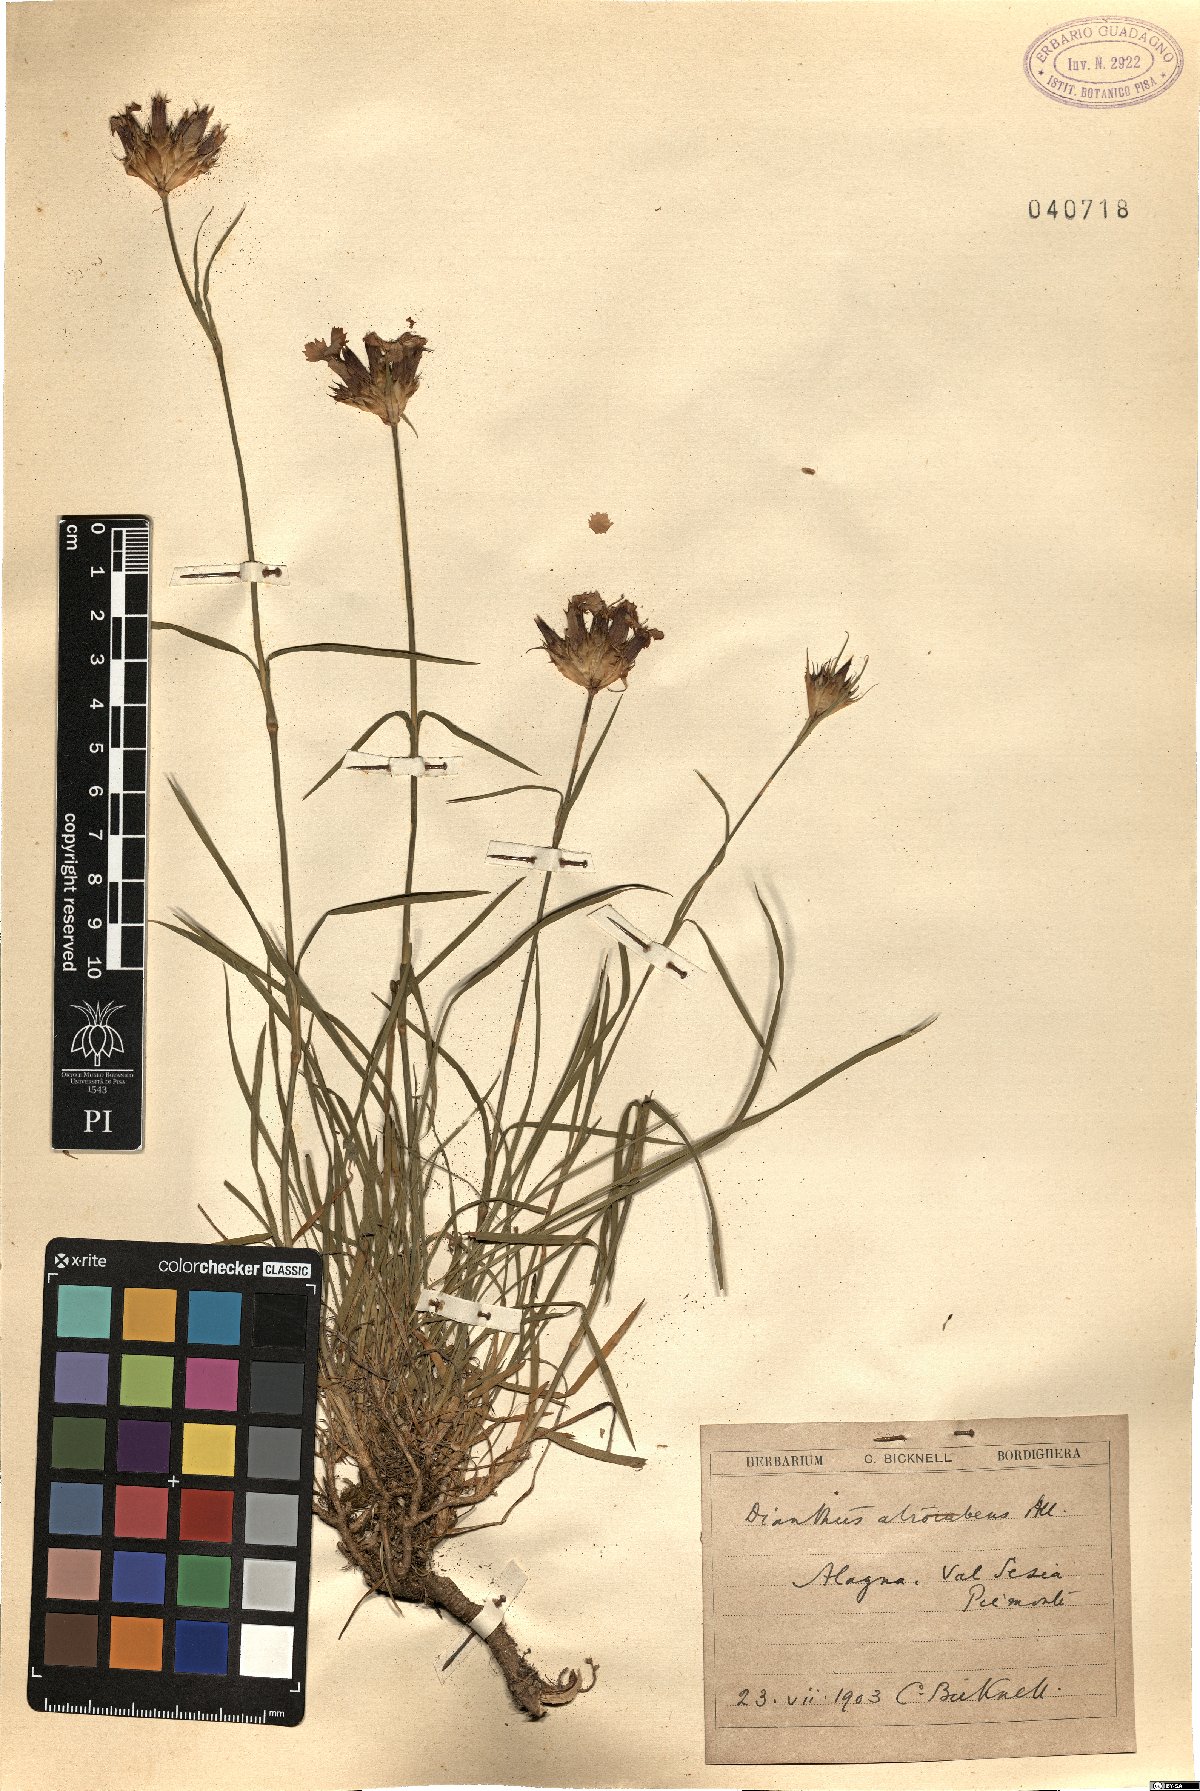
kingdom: Plantae
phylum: Tracheophyta
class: Magnoliopsida
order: Caryophyllales
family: Caryophyllaceae
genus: Dianthus
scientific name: Dianthus carthusianorum
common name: Carthusian pink
